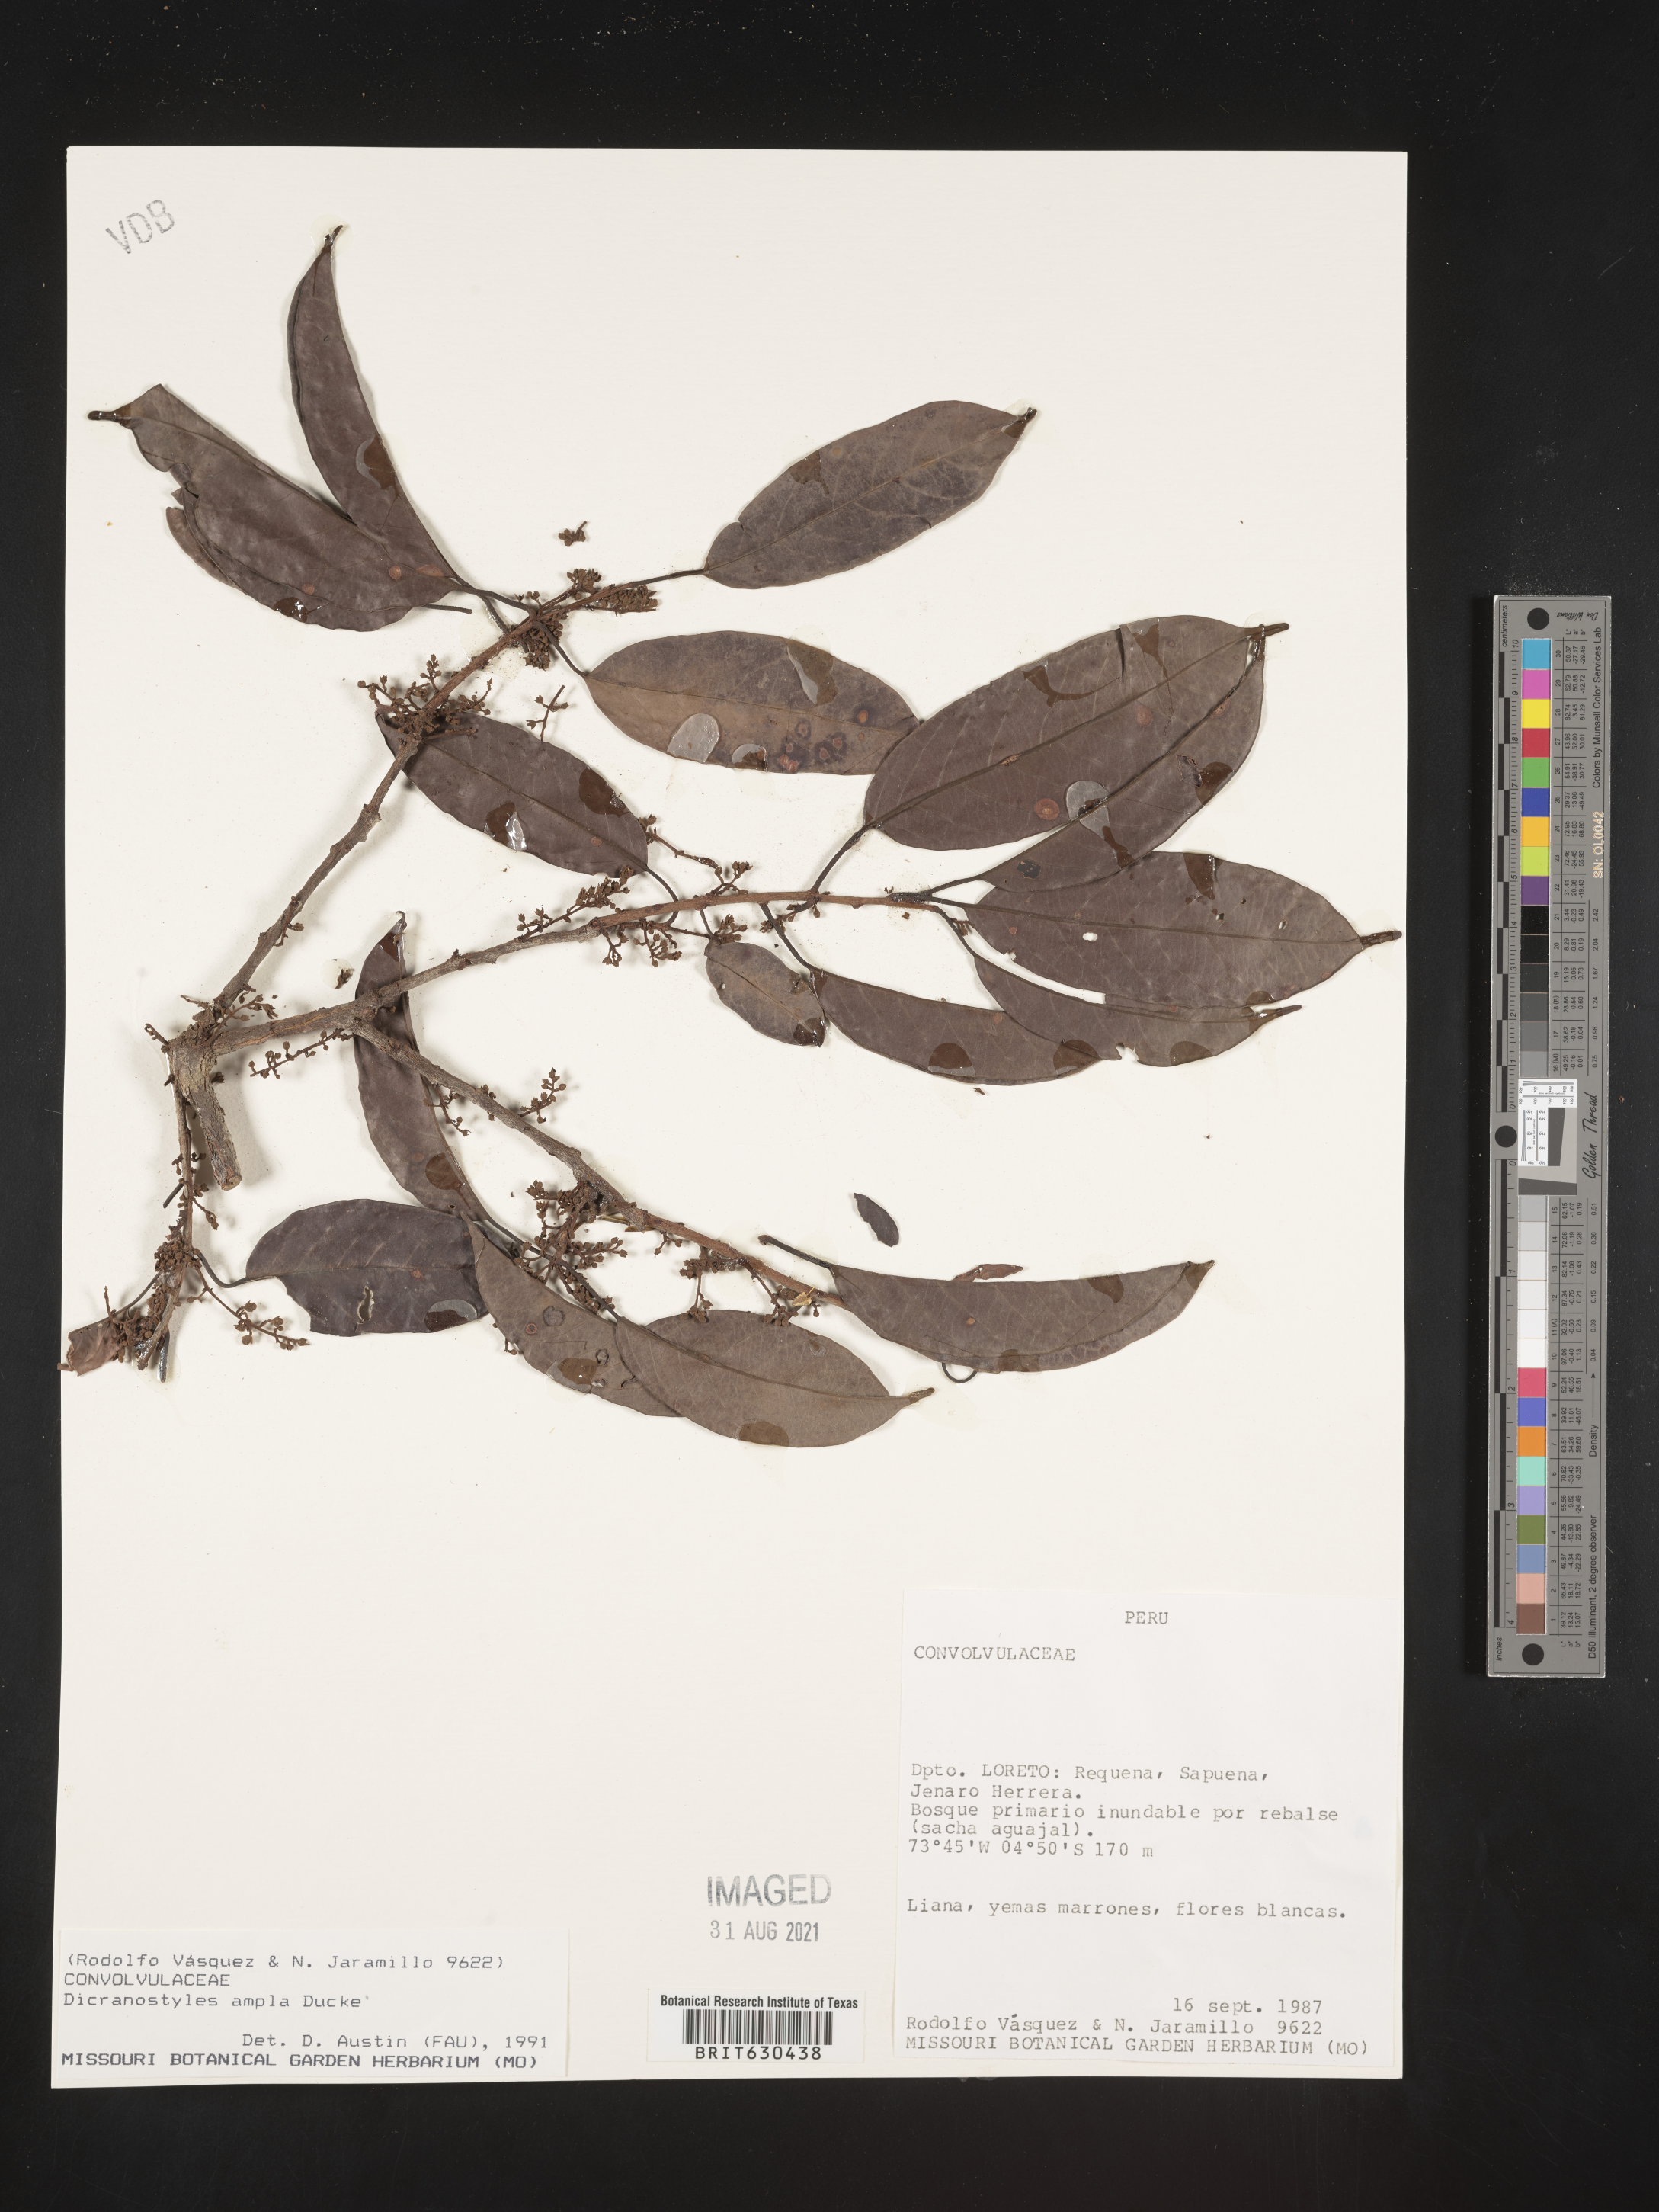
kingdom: Plantae
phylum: Tracheophyta
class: Magnoliopsida
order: Solanales
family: Convolvulaceae
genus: Dicranostyles
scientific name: Dicranostyles ampla
